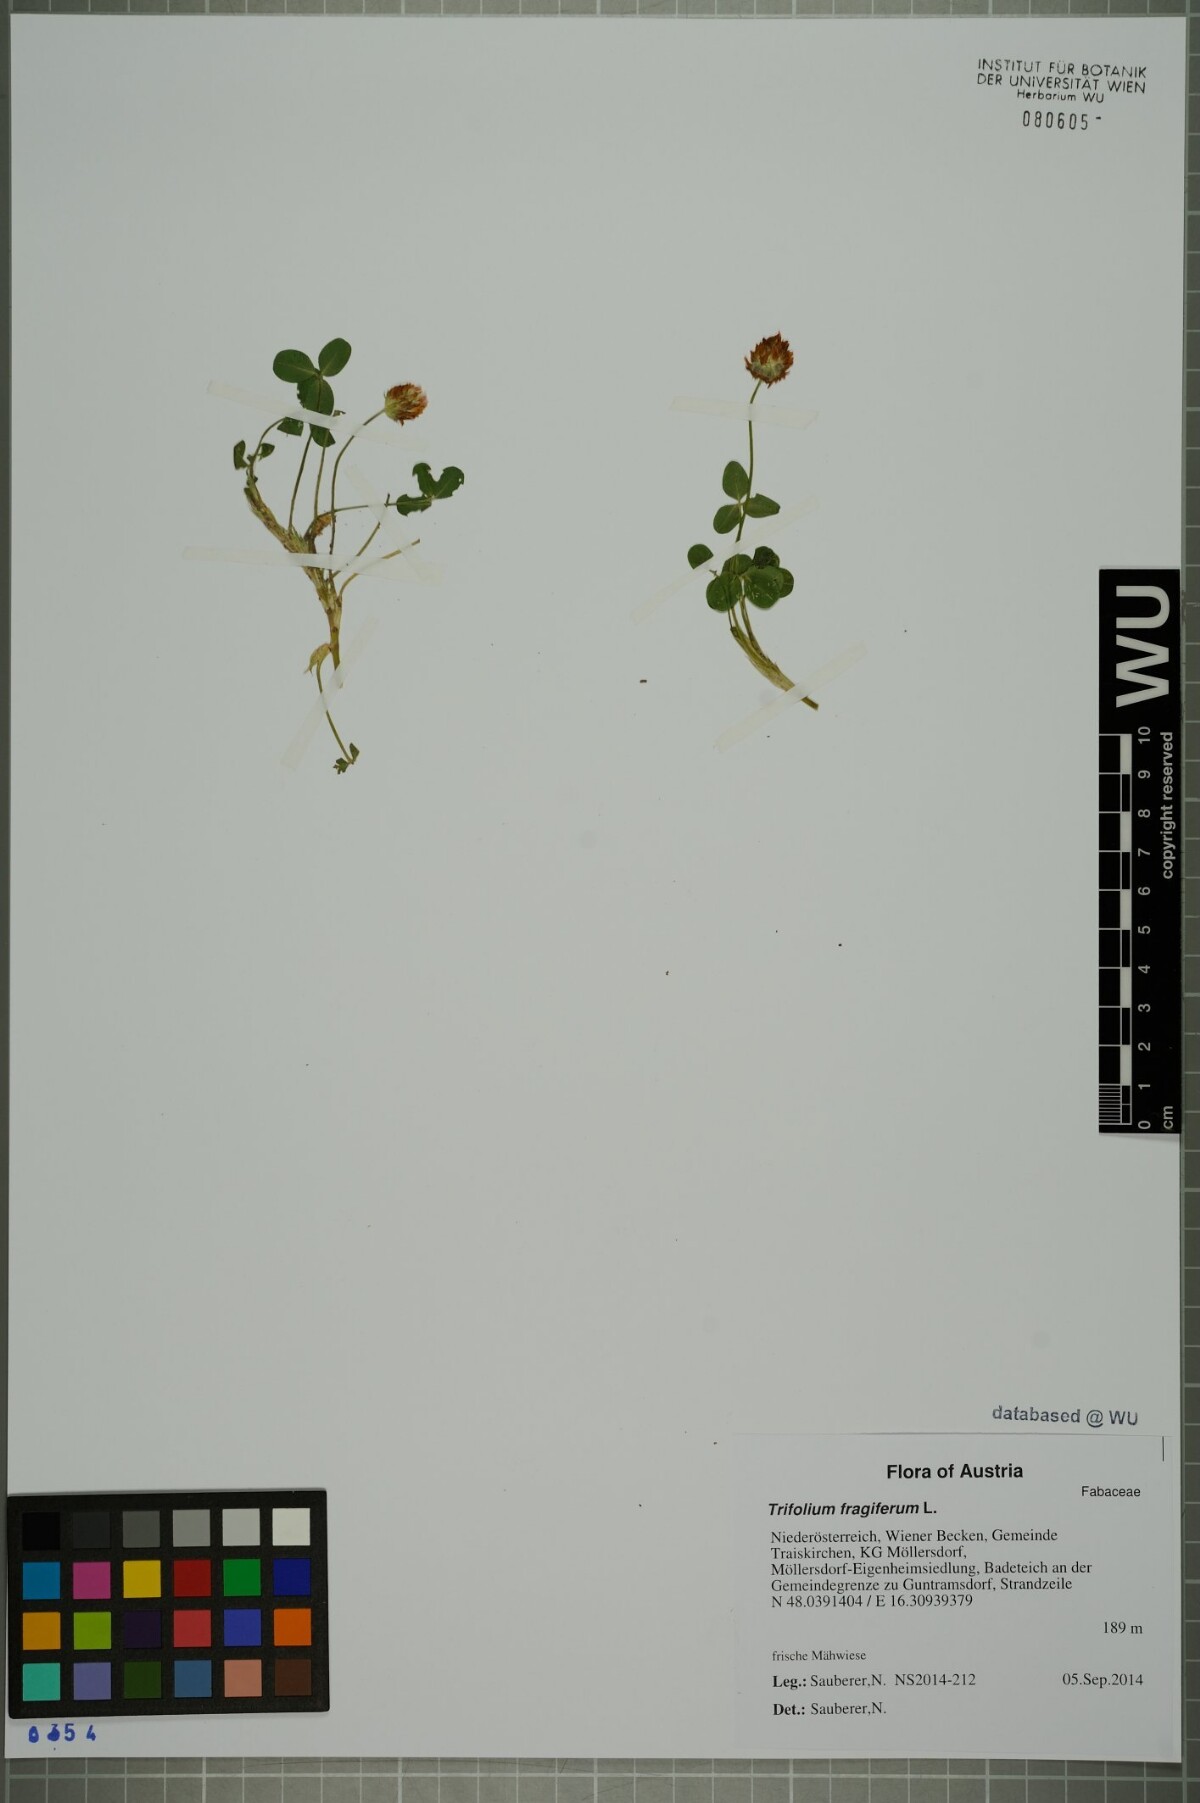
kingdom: Plantae
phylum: Tracheophyta
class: Magnoliopsida
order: Fabales
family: Fabaceae
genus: Trifolium
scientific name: Trifolium fragiferum
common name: Strawberry clover
